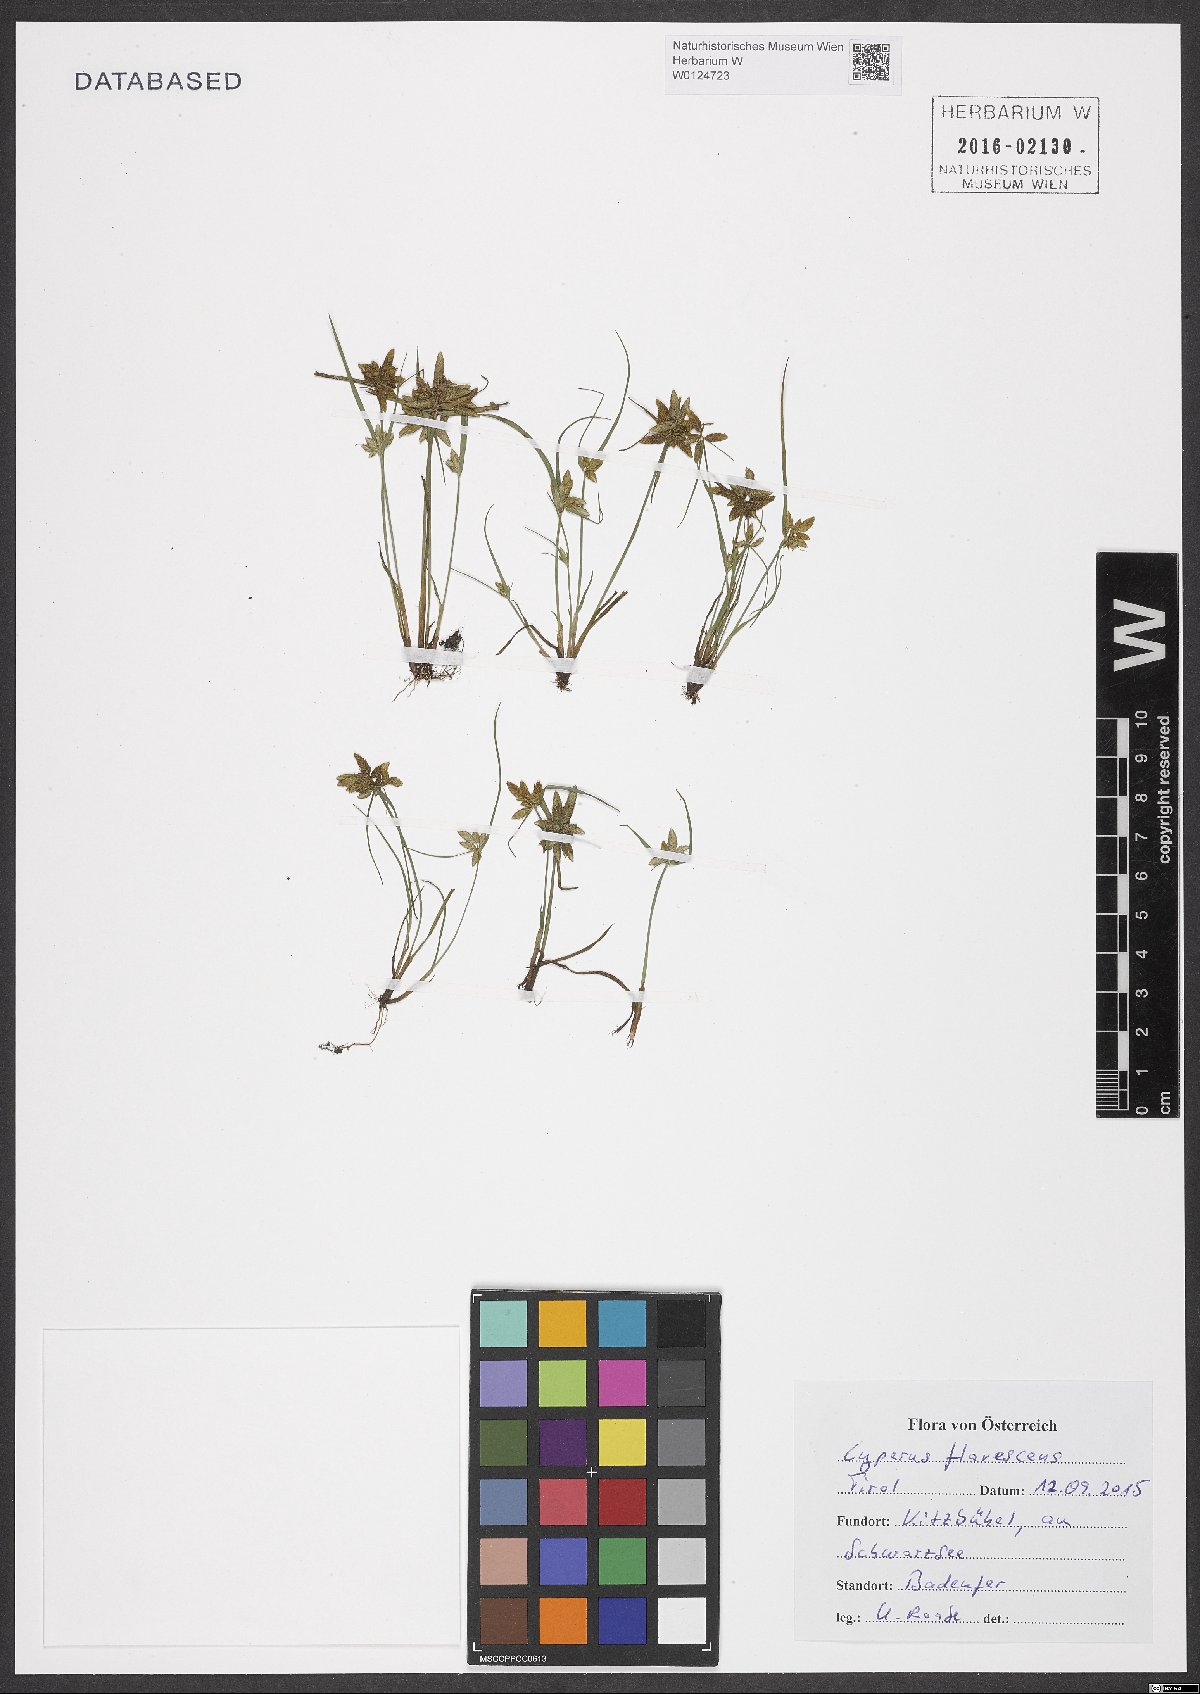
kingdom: Plantae
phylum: Tracheophyta
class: Liliopsida
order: Poales
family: Cyperaceae
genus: Cyperus
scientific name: Cyperus flavescens
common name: Yellow galingale
